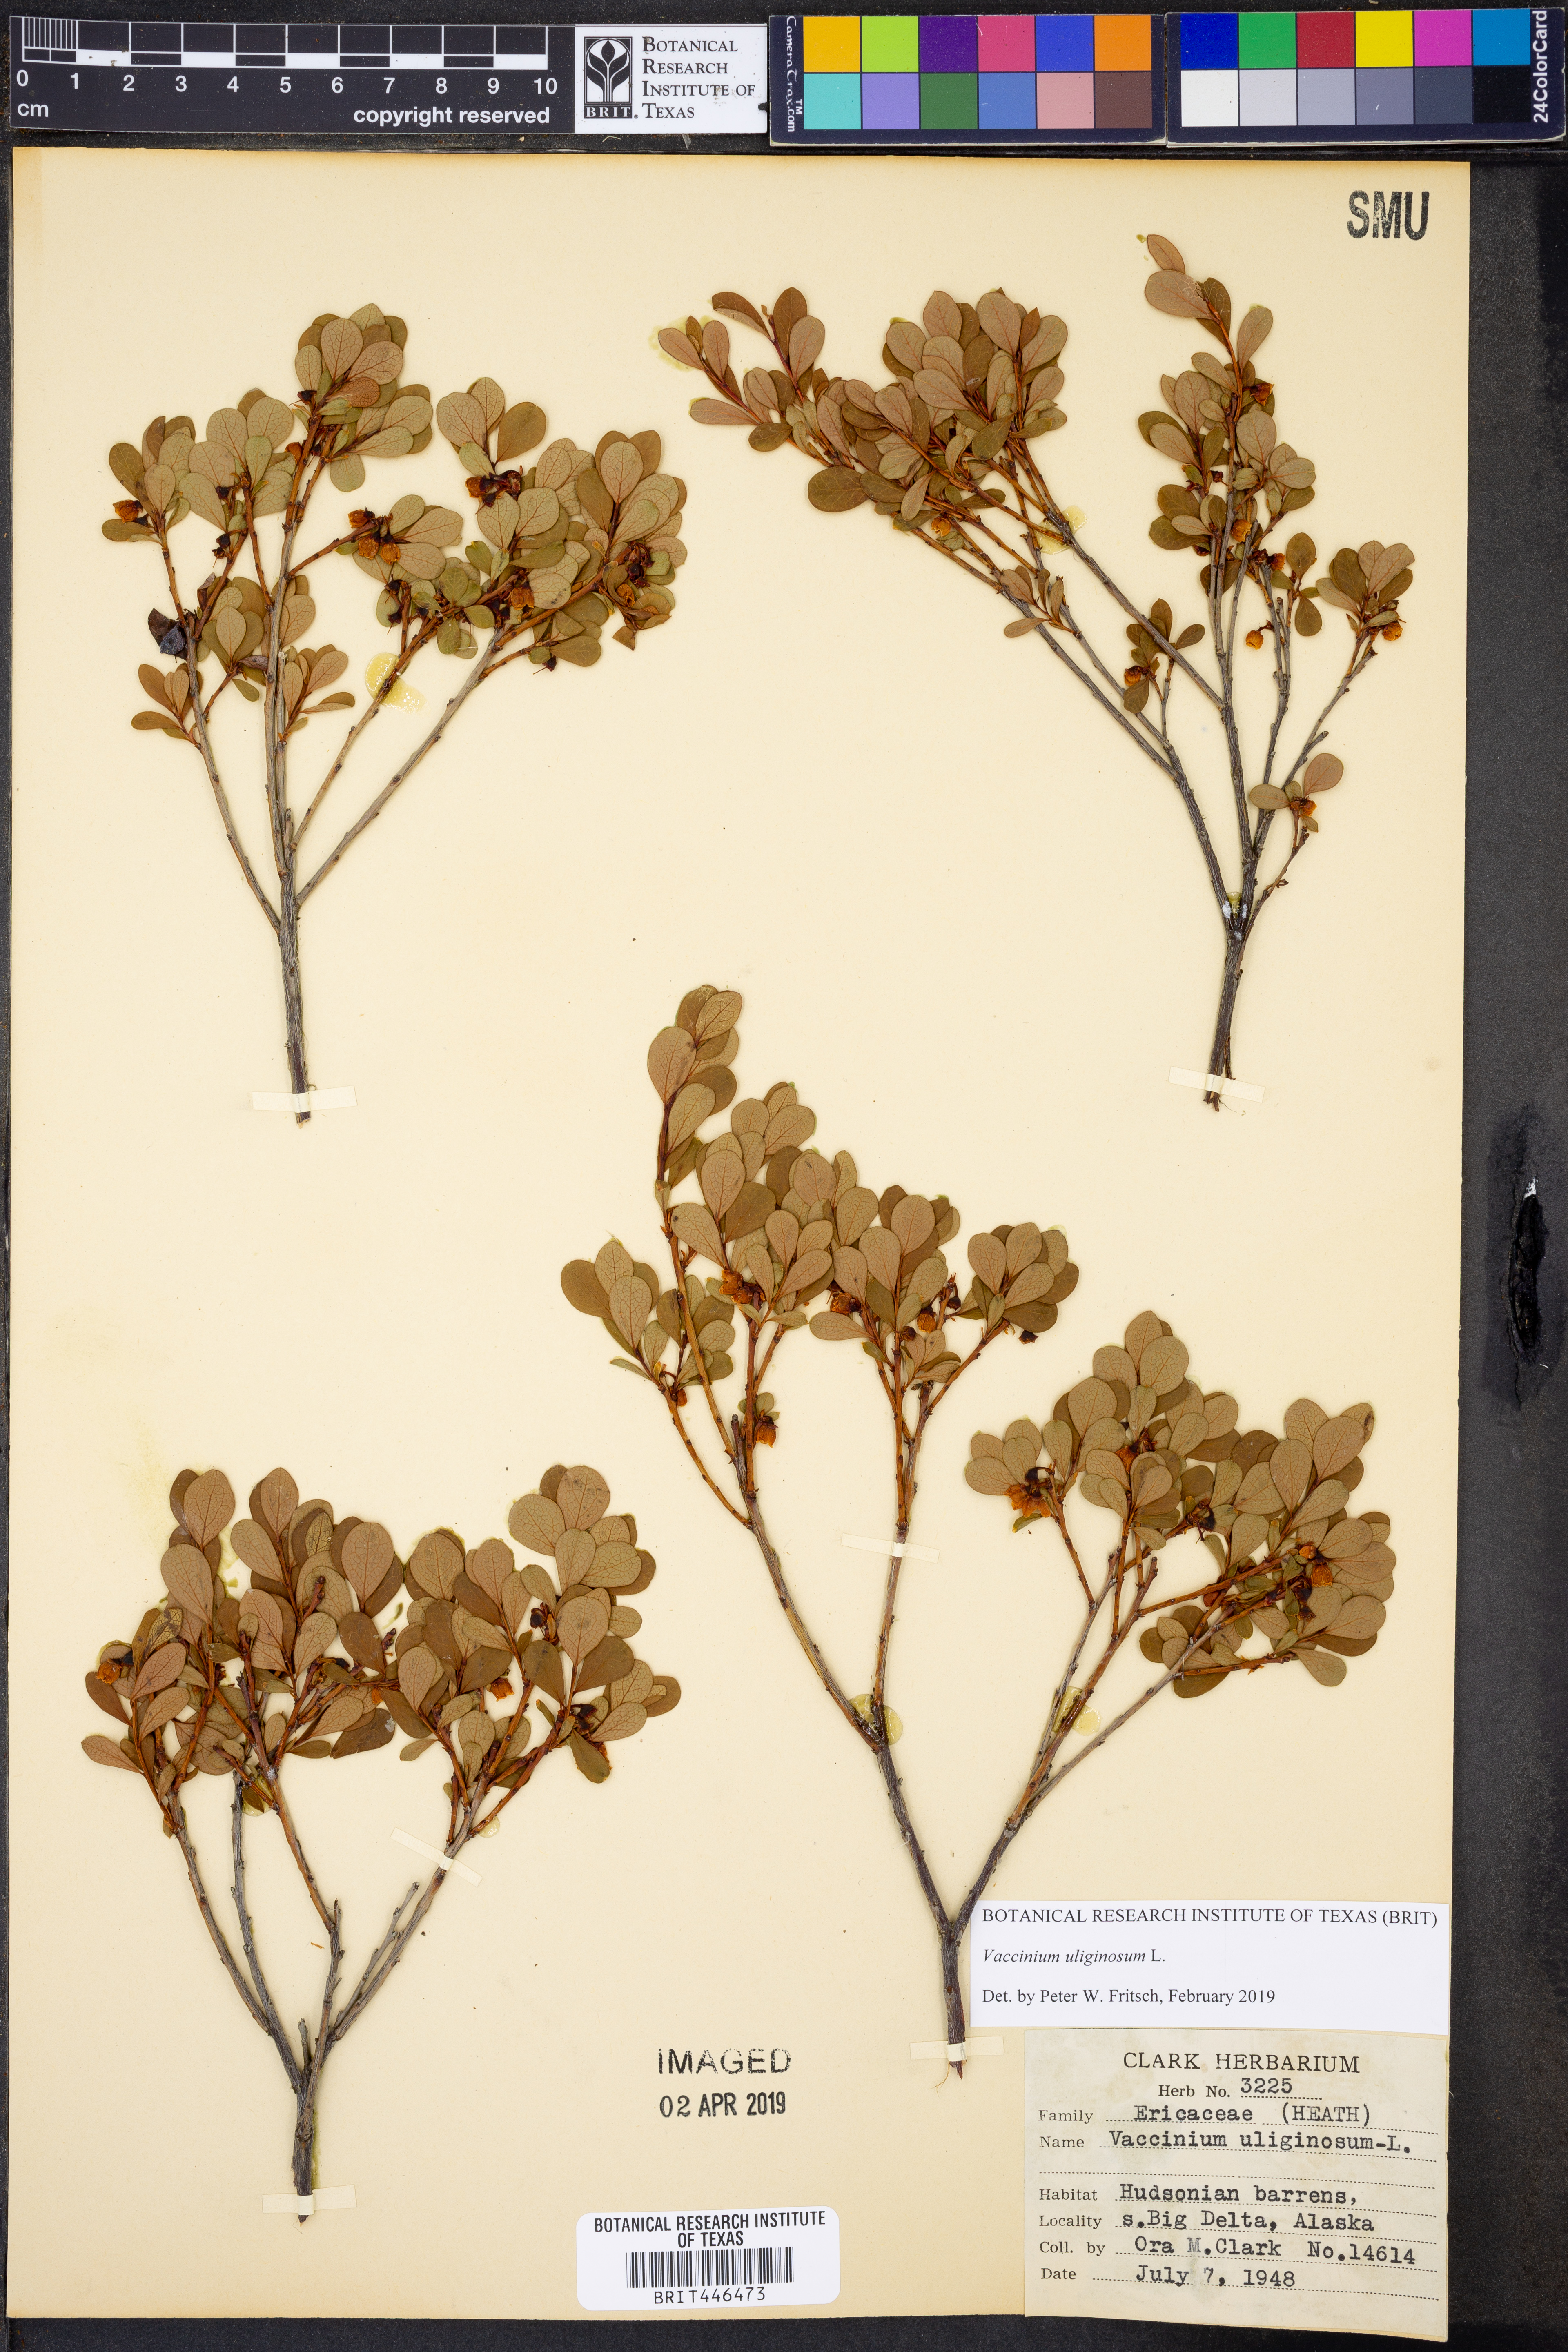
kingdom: Plantae
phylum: Tracheophyta
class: Magnoliopsida
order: Ericales
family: Ericaceae
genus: Vaccinium
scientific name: Vaccinium uliginosum
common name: Bog bilberry
